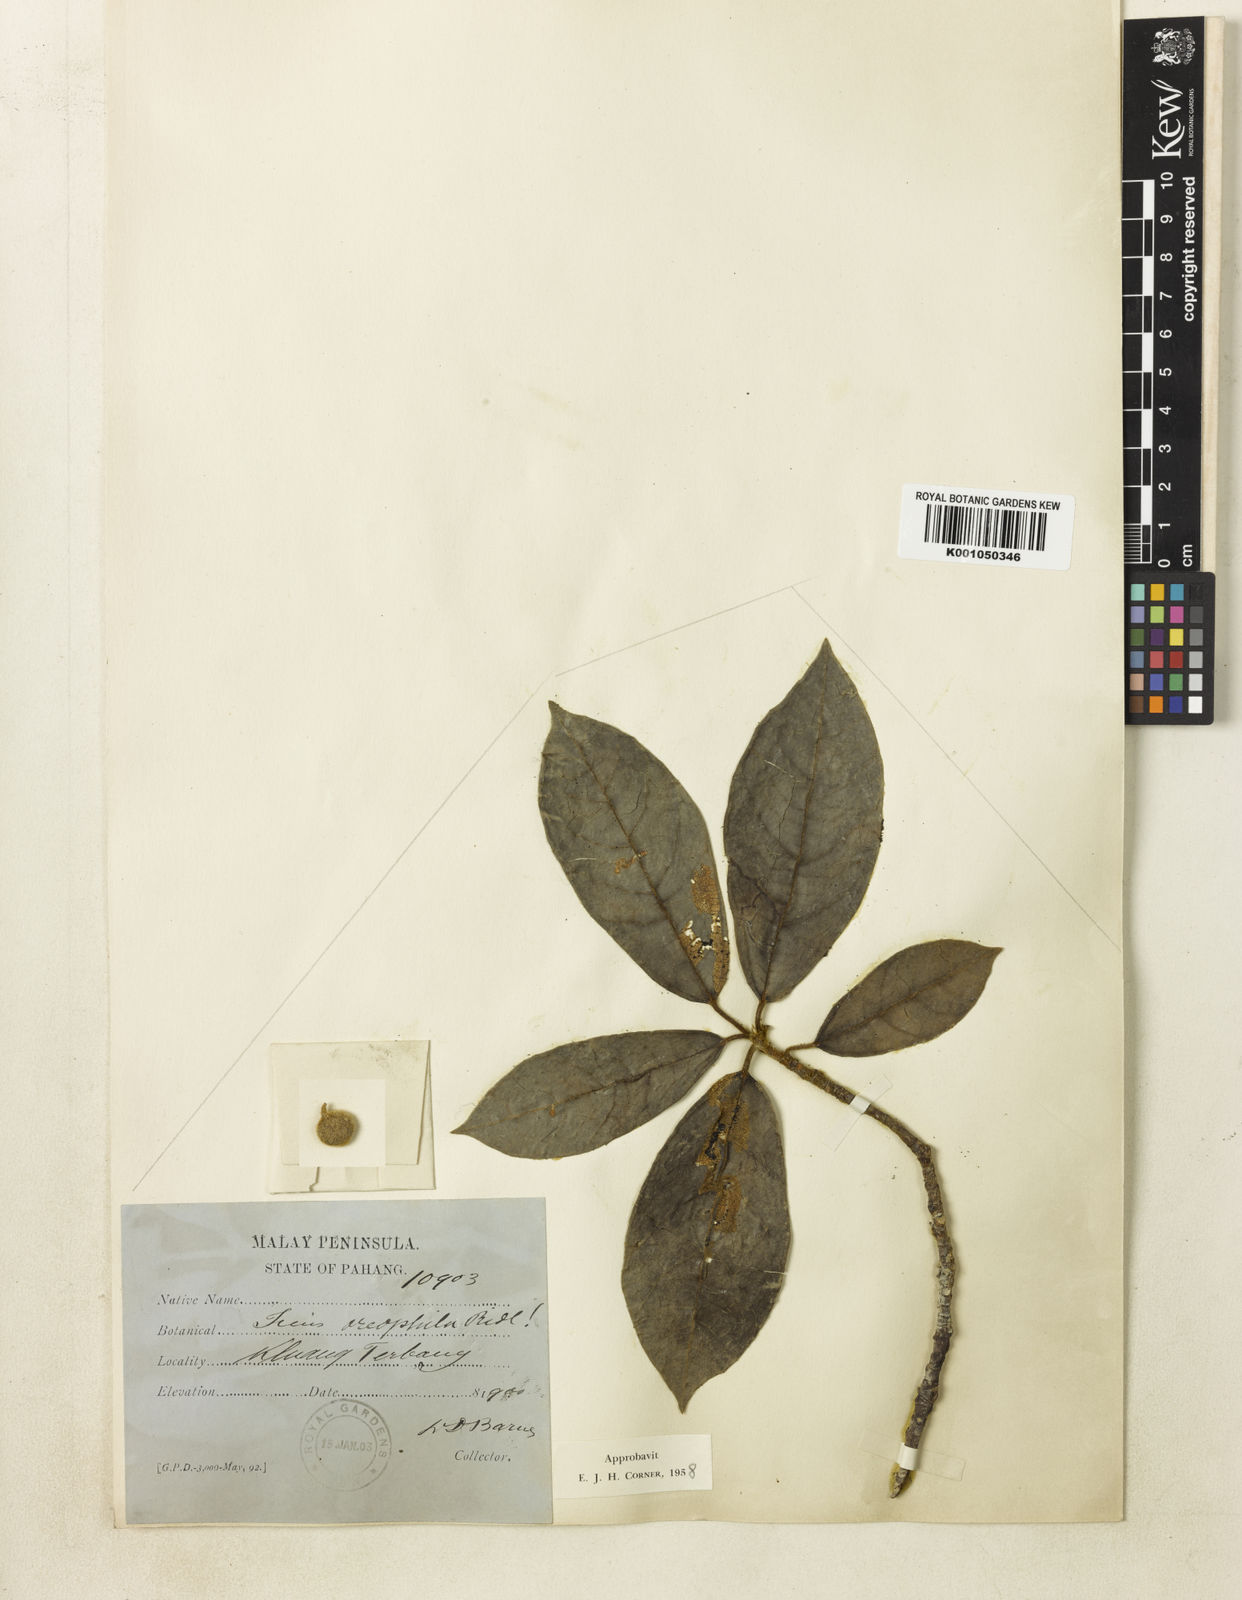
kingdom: Plantae
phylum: Tracheophyta
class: Magnoliopsida
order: Rosales
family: Moraceae
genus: Ficus
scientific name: Ficus oreophila
